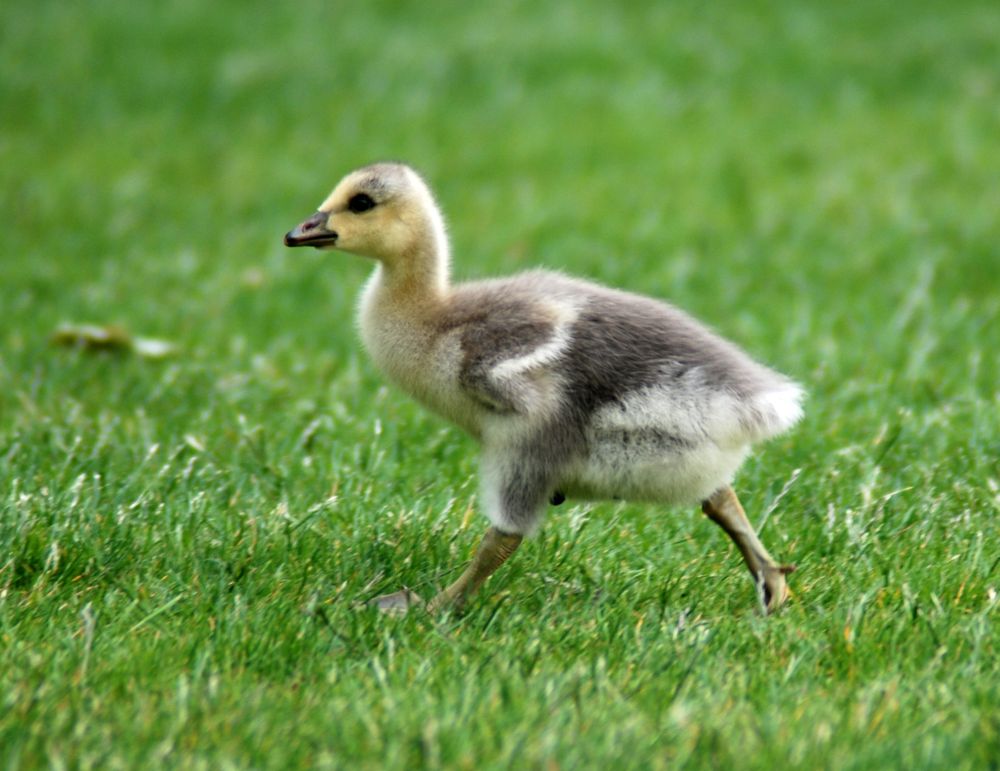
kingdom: Animalia
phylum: Chordata
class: Aves
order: Anseriformes
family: Anatidae
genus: Anser
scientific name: Anser indicus
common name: Bar-headed goose
